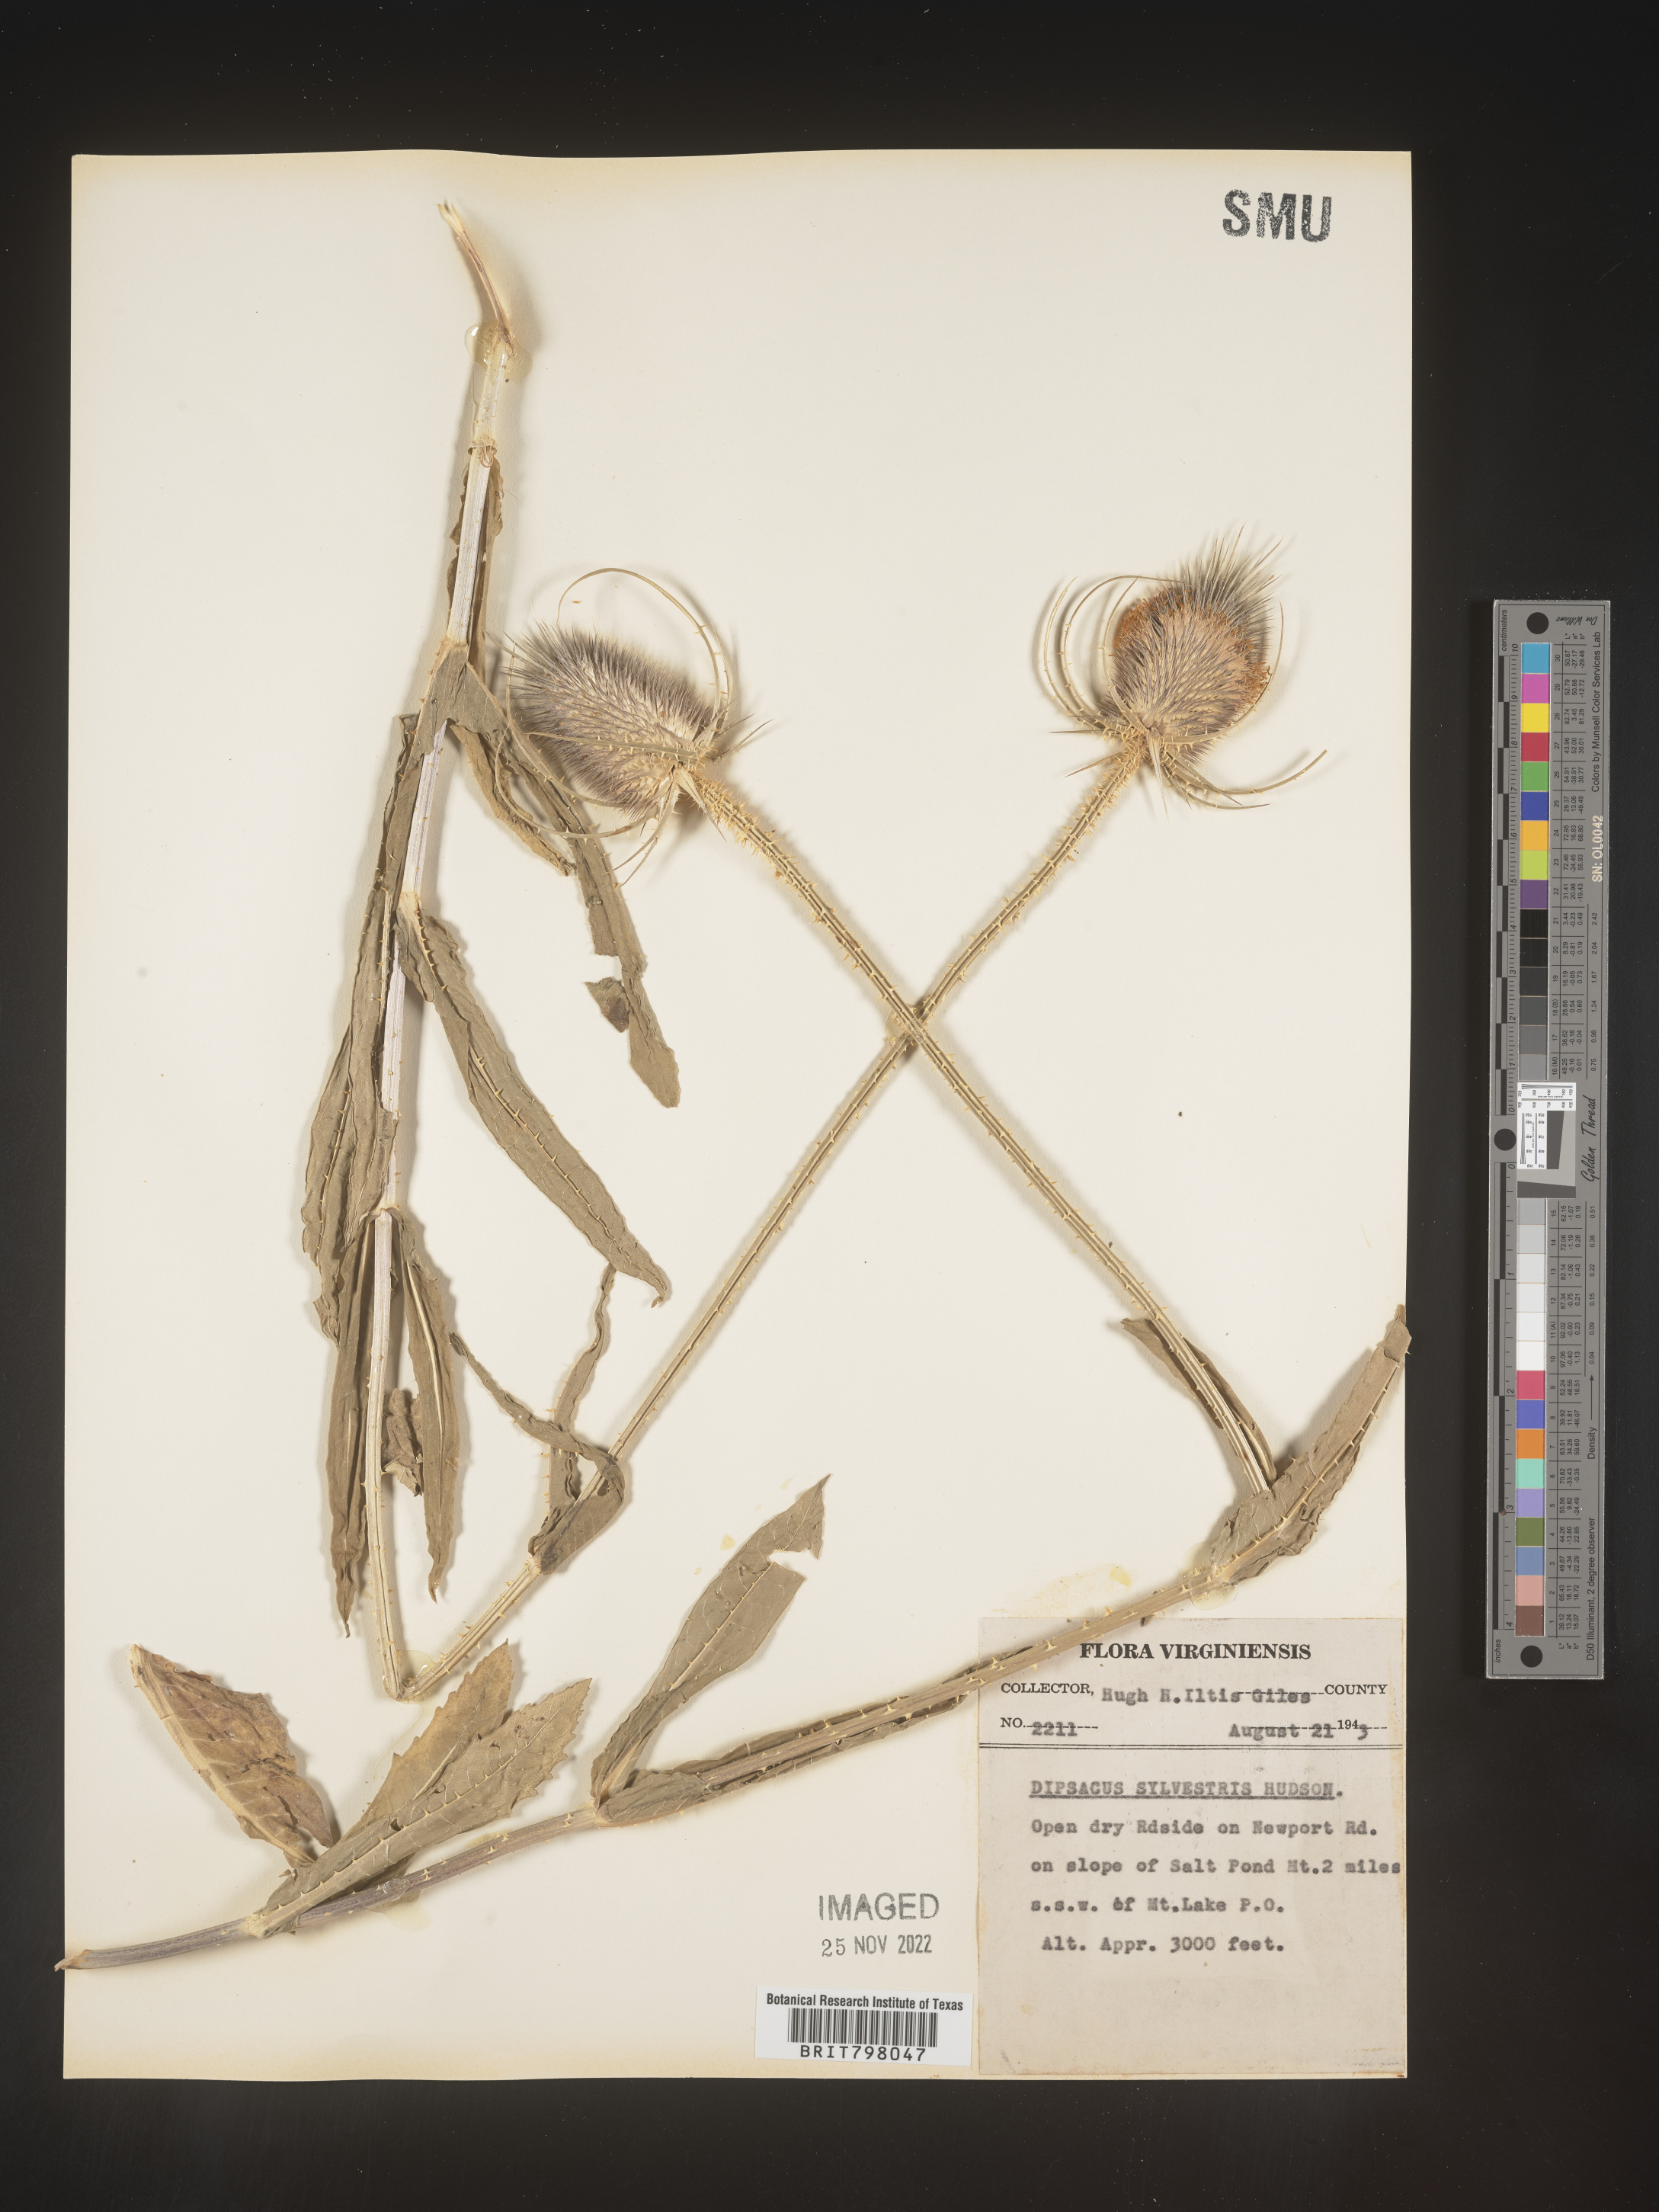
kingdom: Plantae
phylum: Tracheophyta
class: Magnoliopsida
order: Dipsacales
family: Caprifoliaceae
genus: Dipsacus
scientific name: Dipsacus fullonum
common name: Teasel
